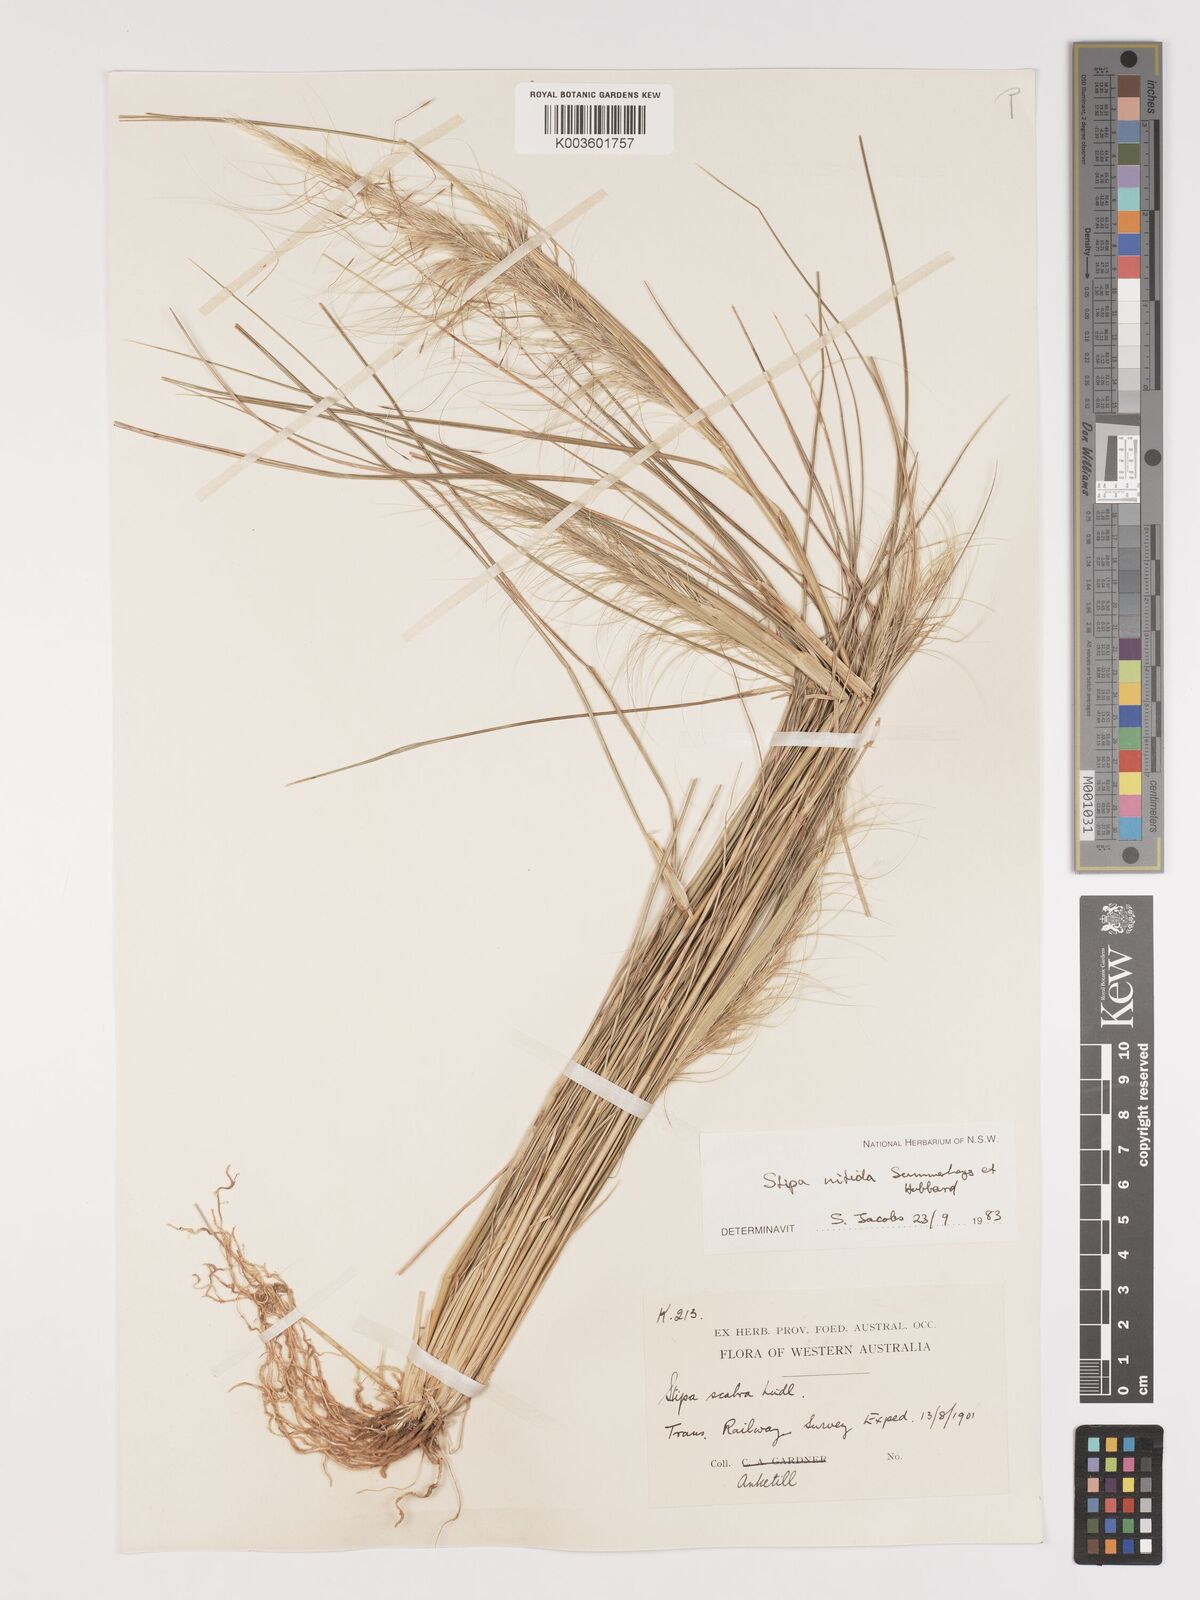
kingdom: Plantae
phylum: Tracheophyta
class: Liliopsida
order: Poales
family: Poaceae
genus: Austrostipa
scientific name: Austrostipa nitida
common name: Balcarra grass
